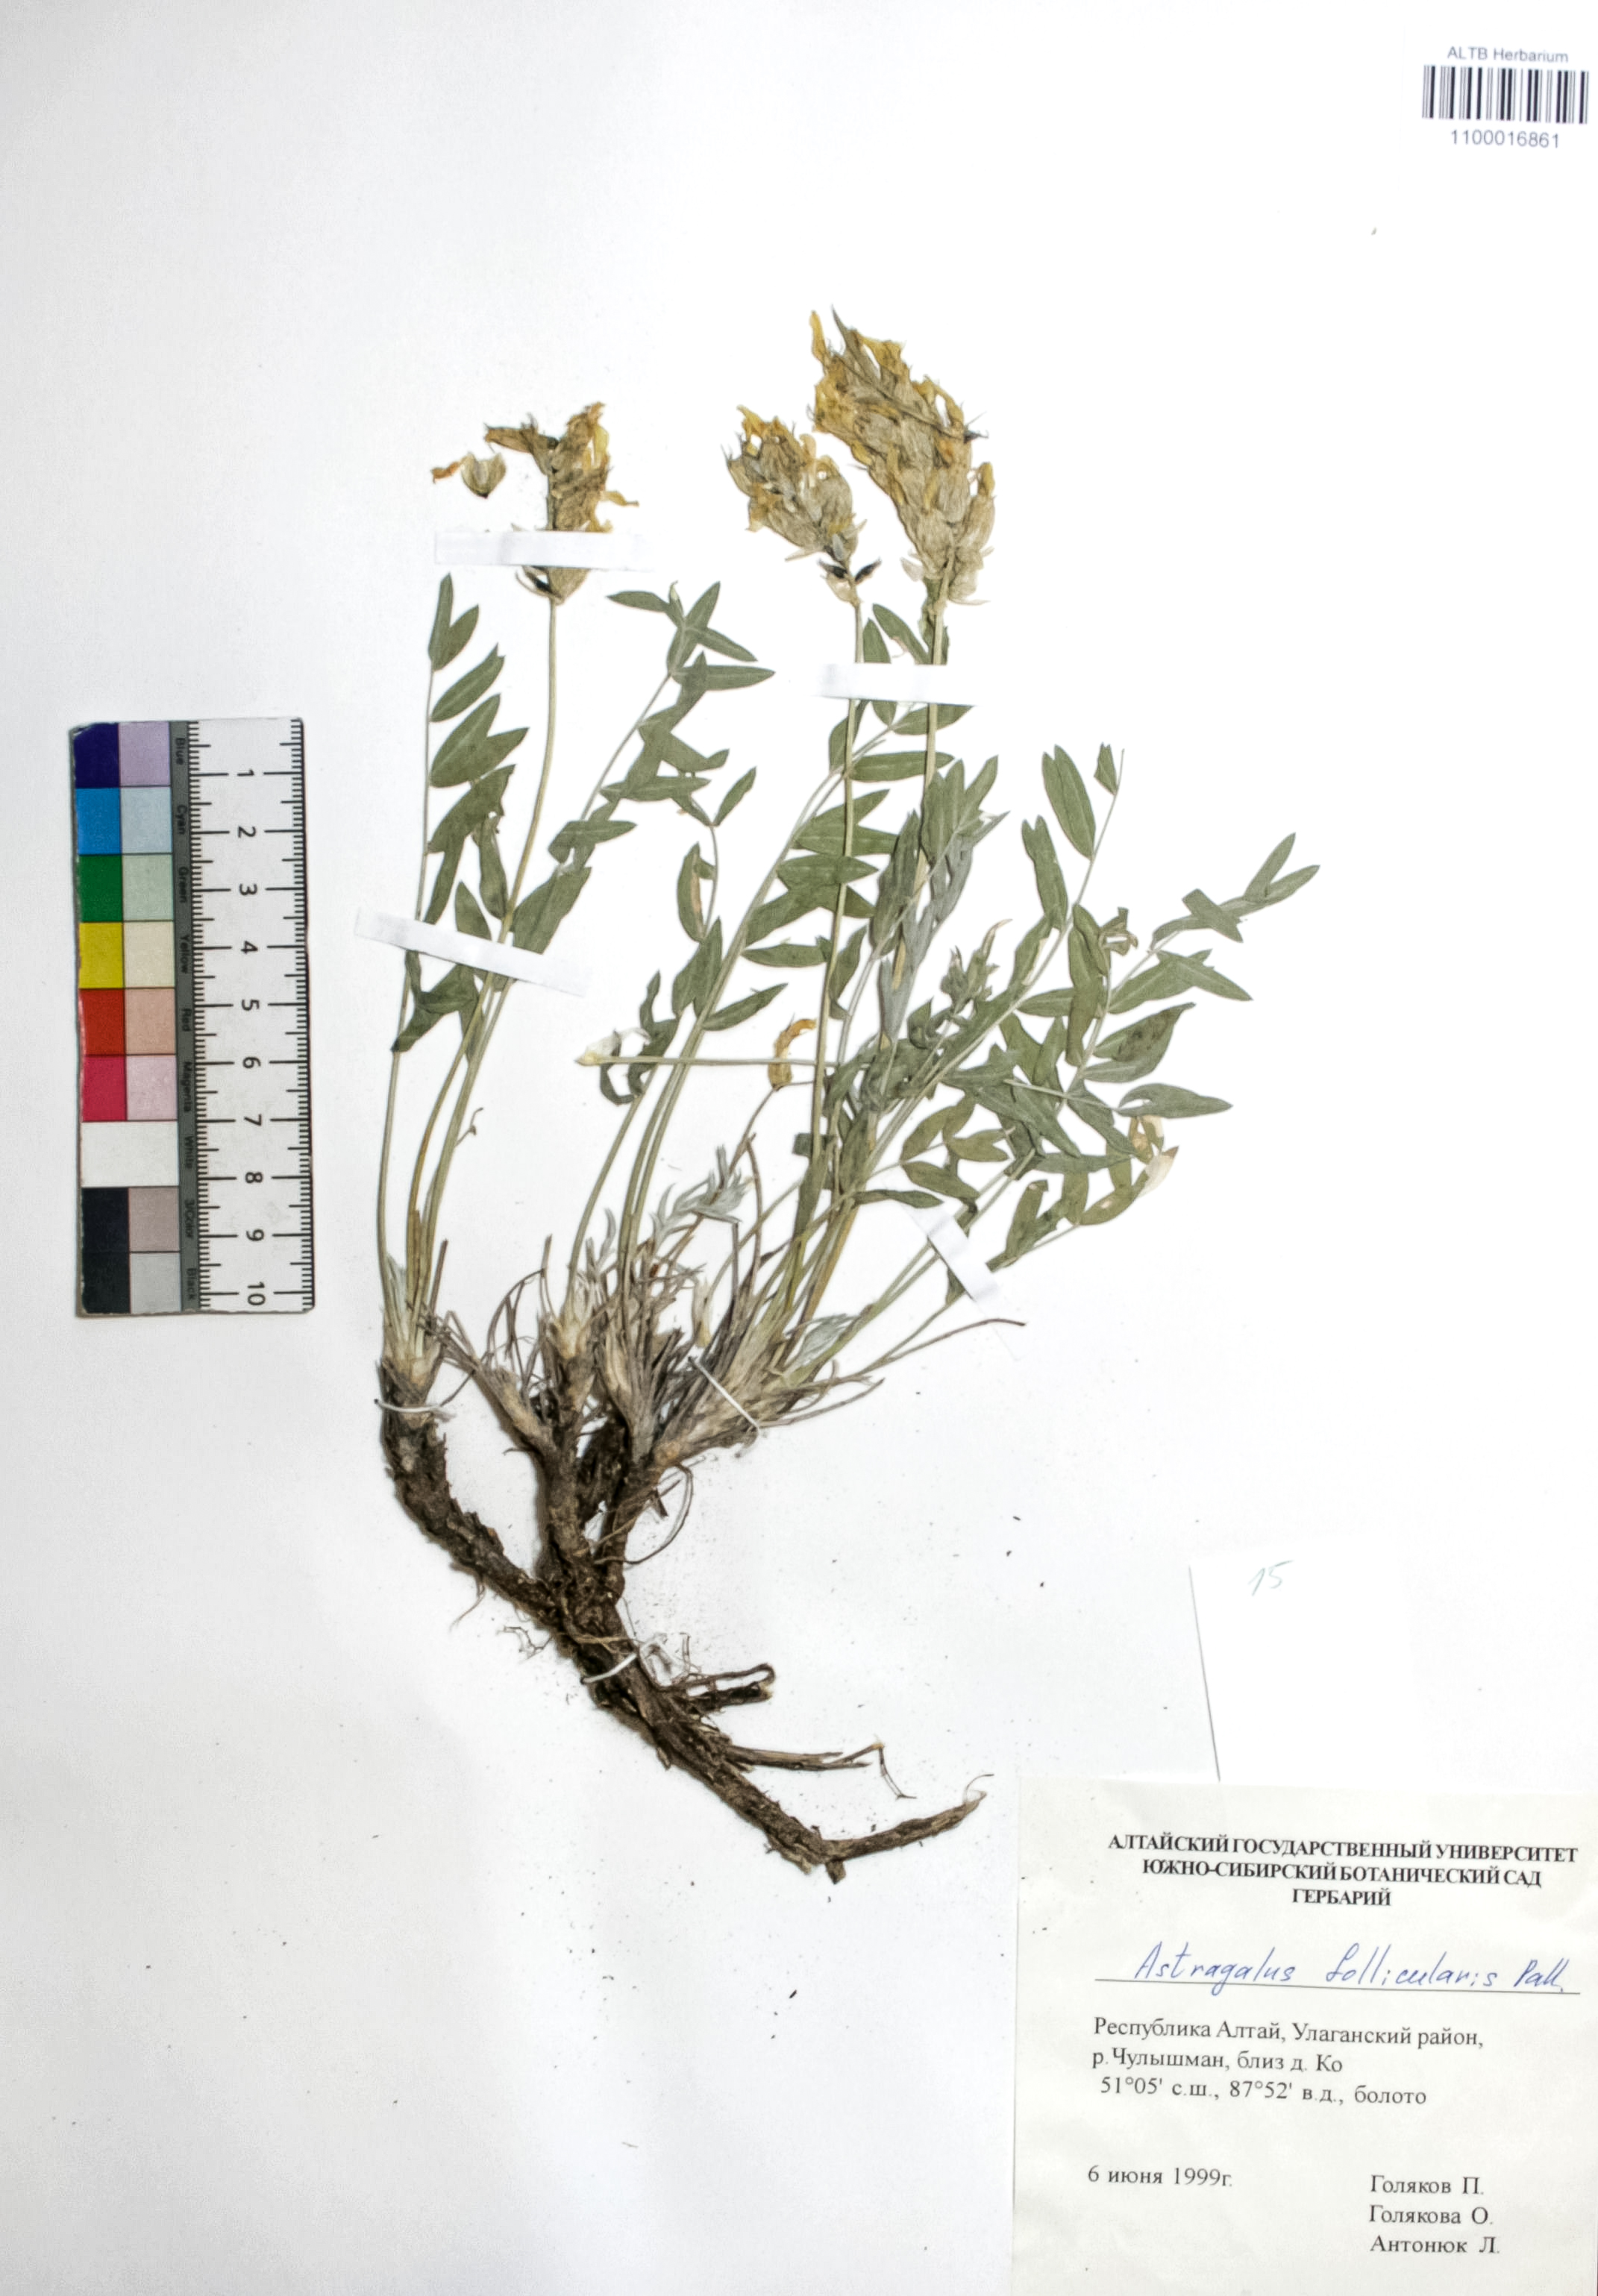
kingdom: Plantae
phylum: Tracheophyta
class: Magnoliopsida
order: Fabales
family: Fabaceae
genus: Astragalus
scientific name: Astragalus follicularis
